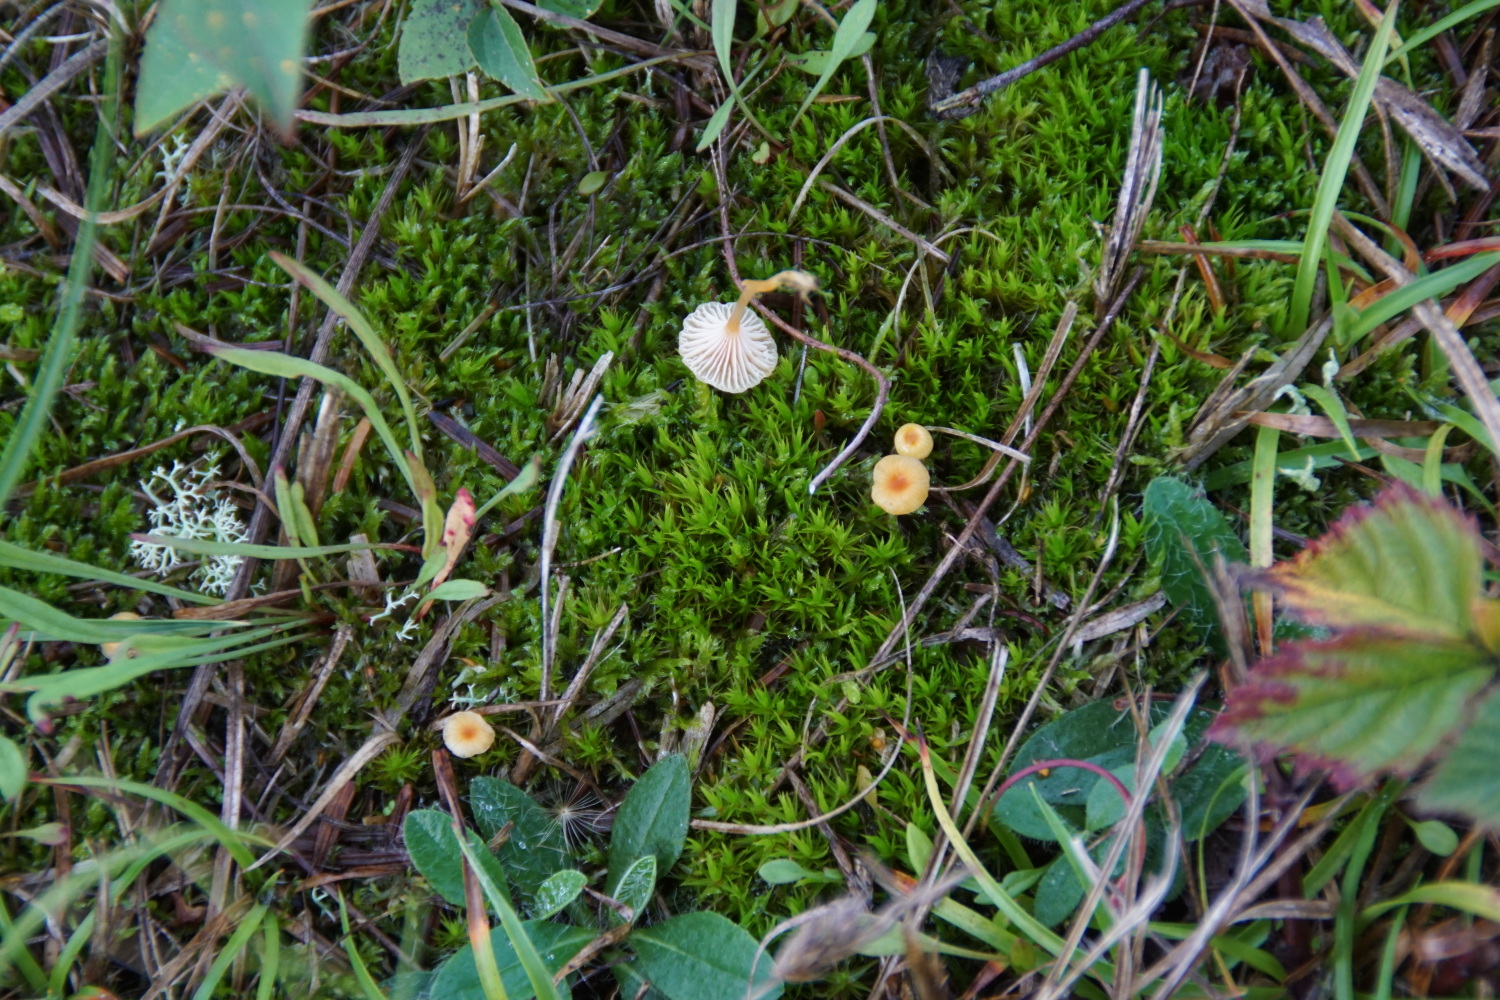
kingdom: Fungi
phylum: Basidiomycota
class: Agaricomycetes
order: Hymenochaetales
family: Rickenellaceae
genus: Rickenella
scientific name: Rickenella fibula
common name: orange mosnavlehat
